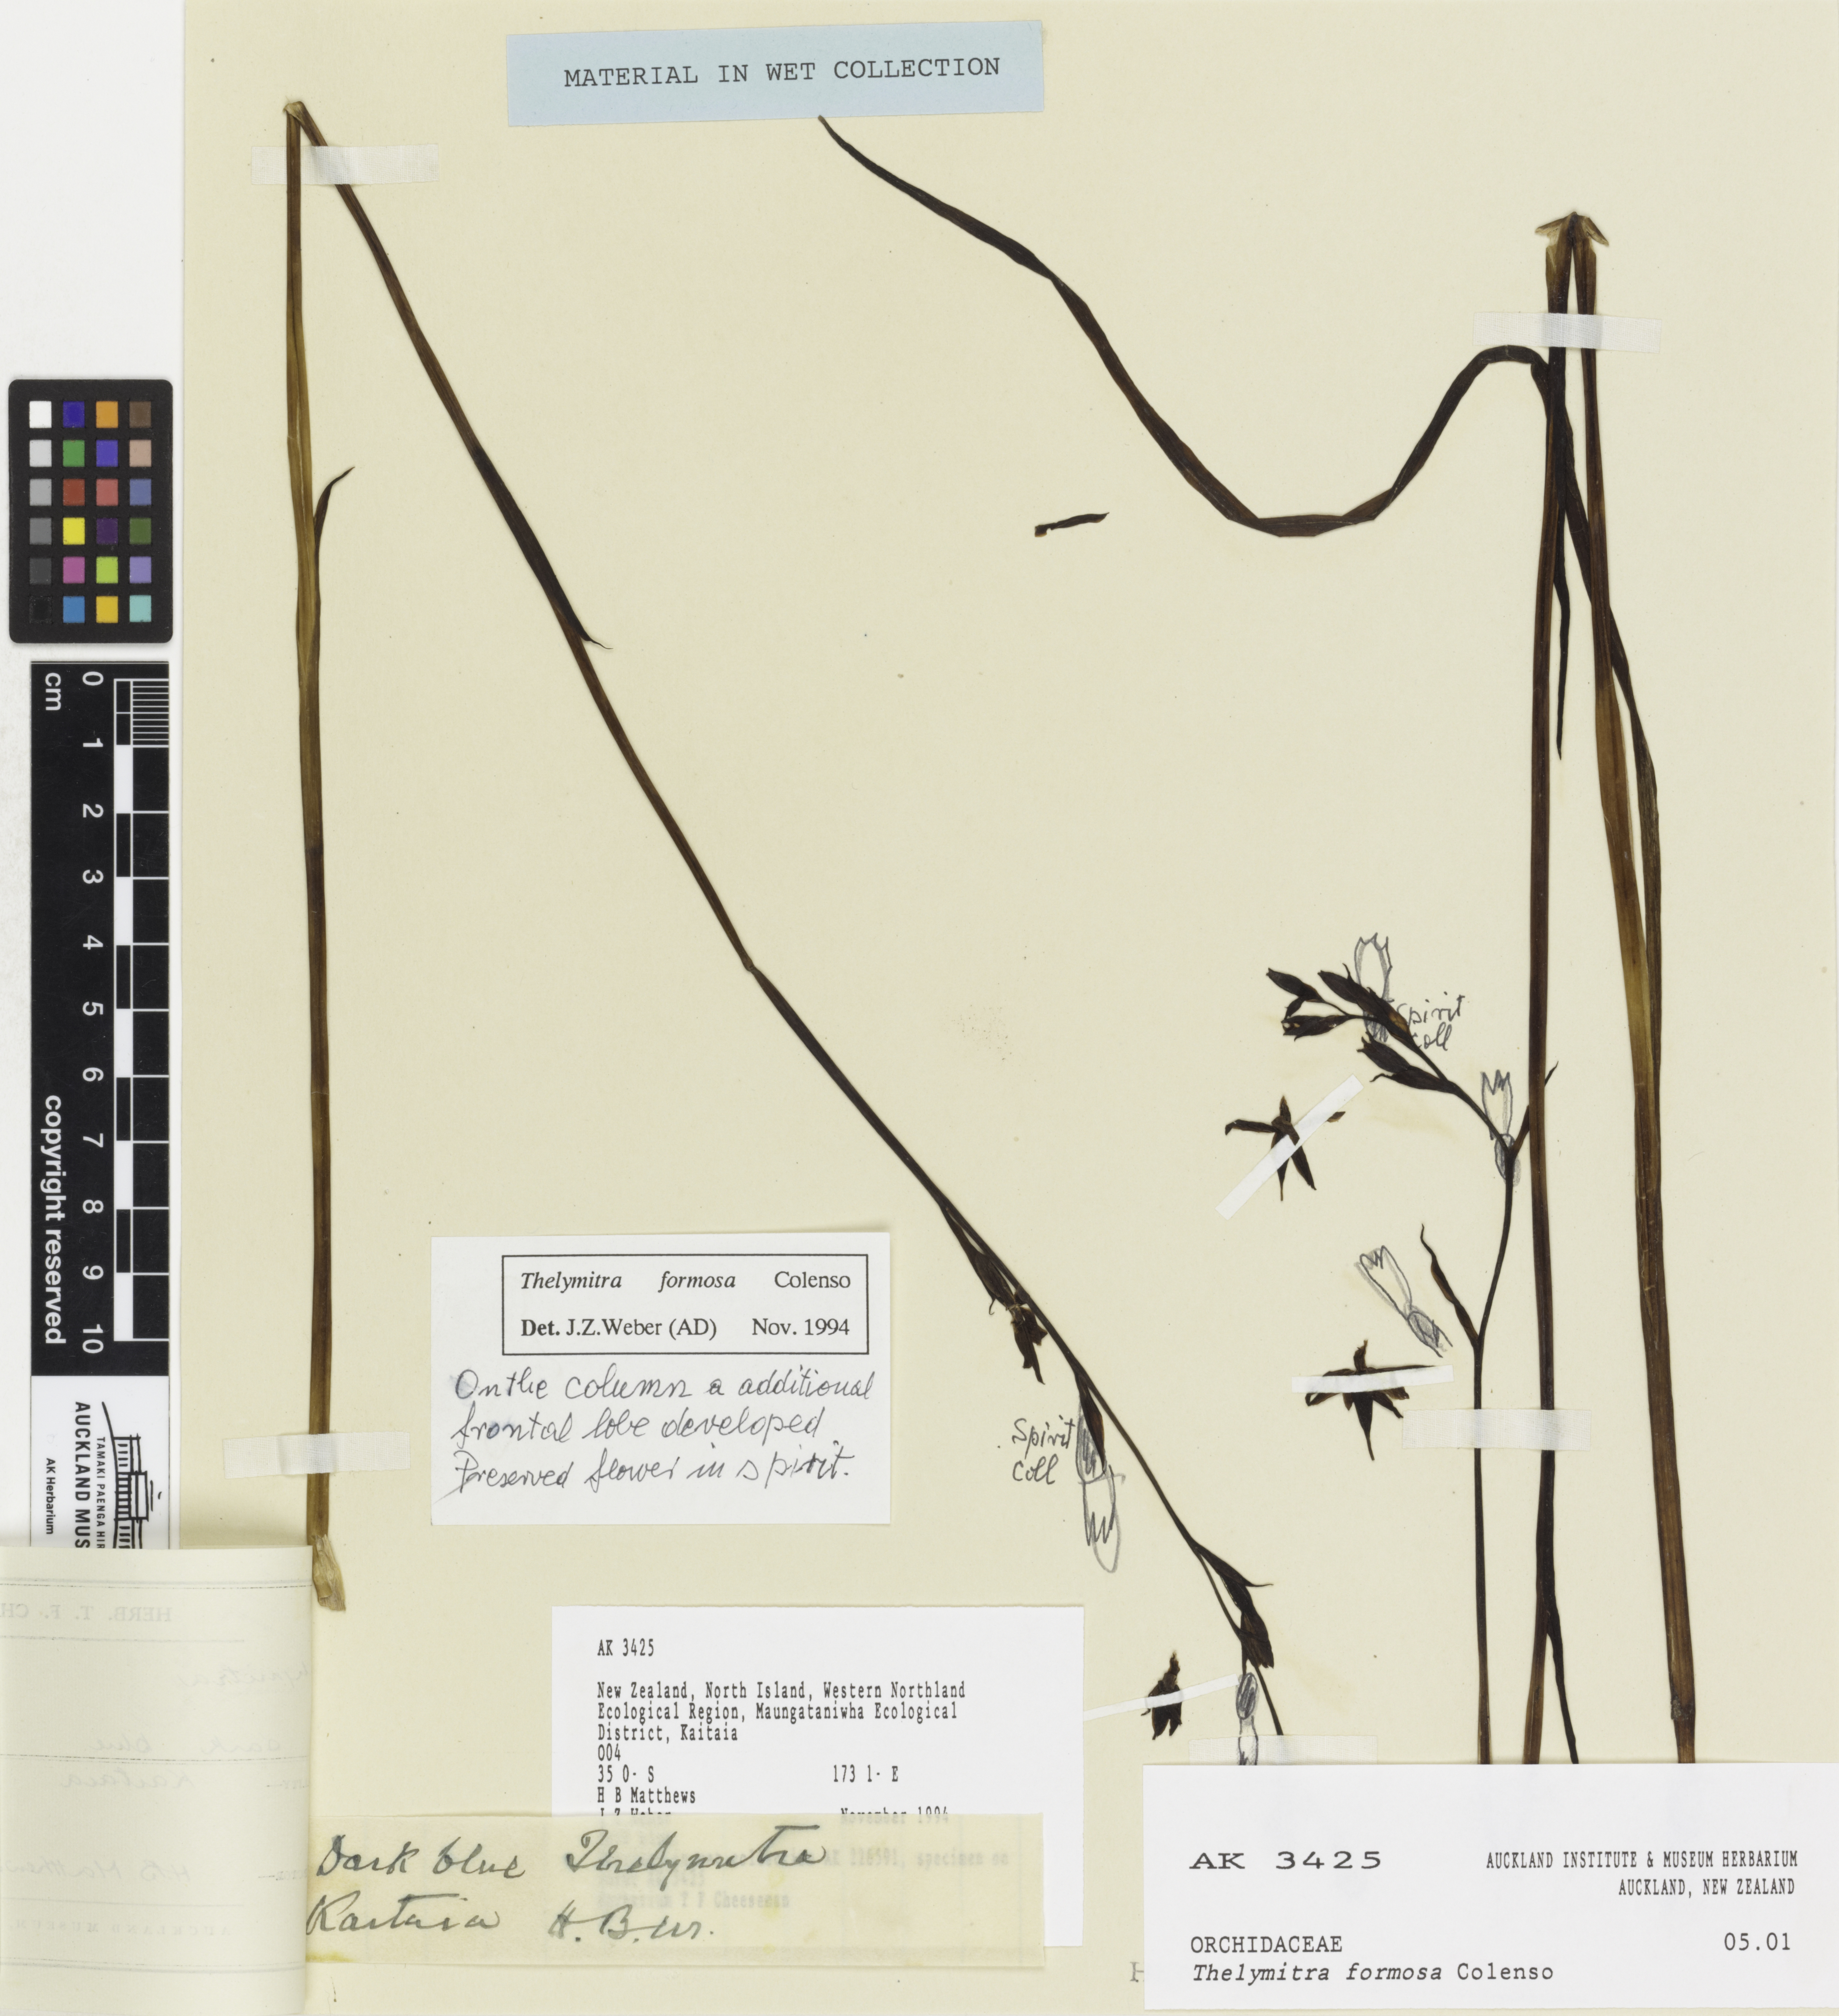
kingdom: Plantae
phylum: Tracheophyta
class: Liliopsida
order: Asparagales
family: Orchidaceae
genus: Thelymitra
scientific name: Thelymitra formosa
